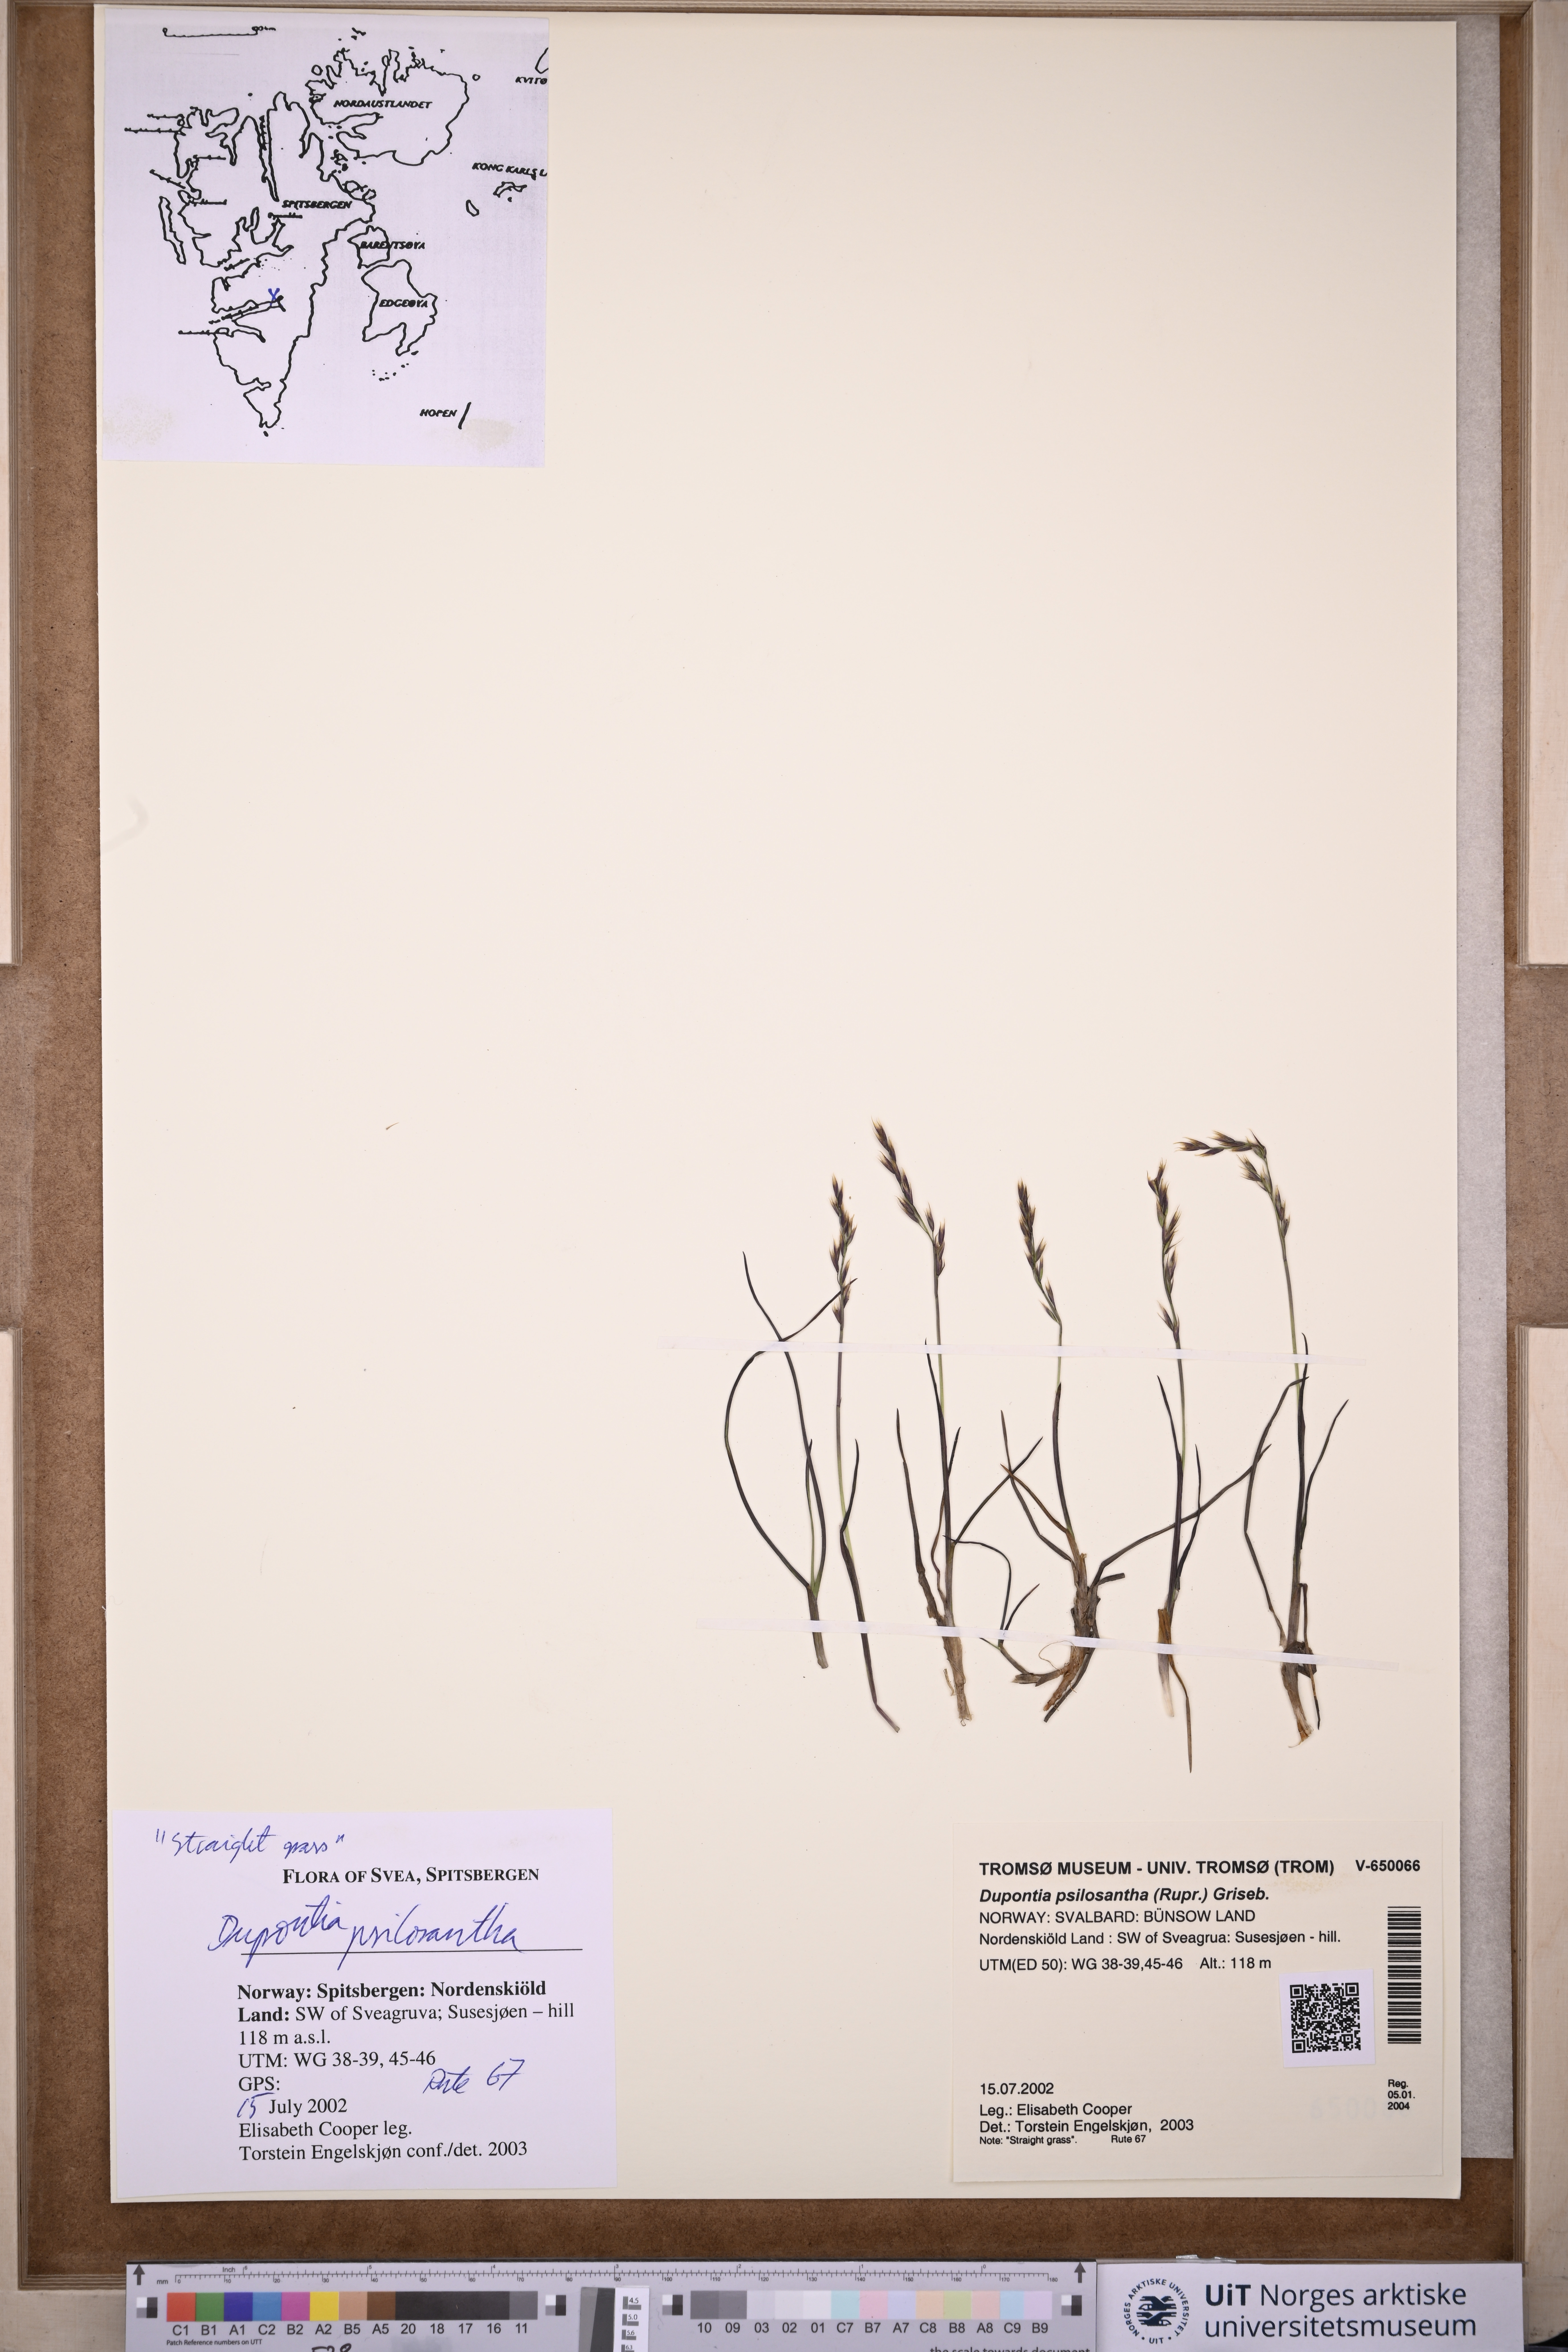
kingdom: Plantae
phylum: Tracheophyta
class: Liliopsida
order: Poales
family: Poaceae
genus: Dupontia
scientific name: Dupontia fisheri
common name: Tundra grass
